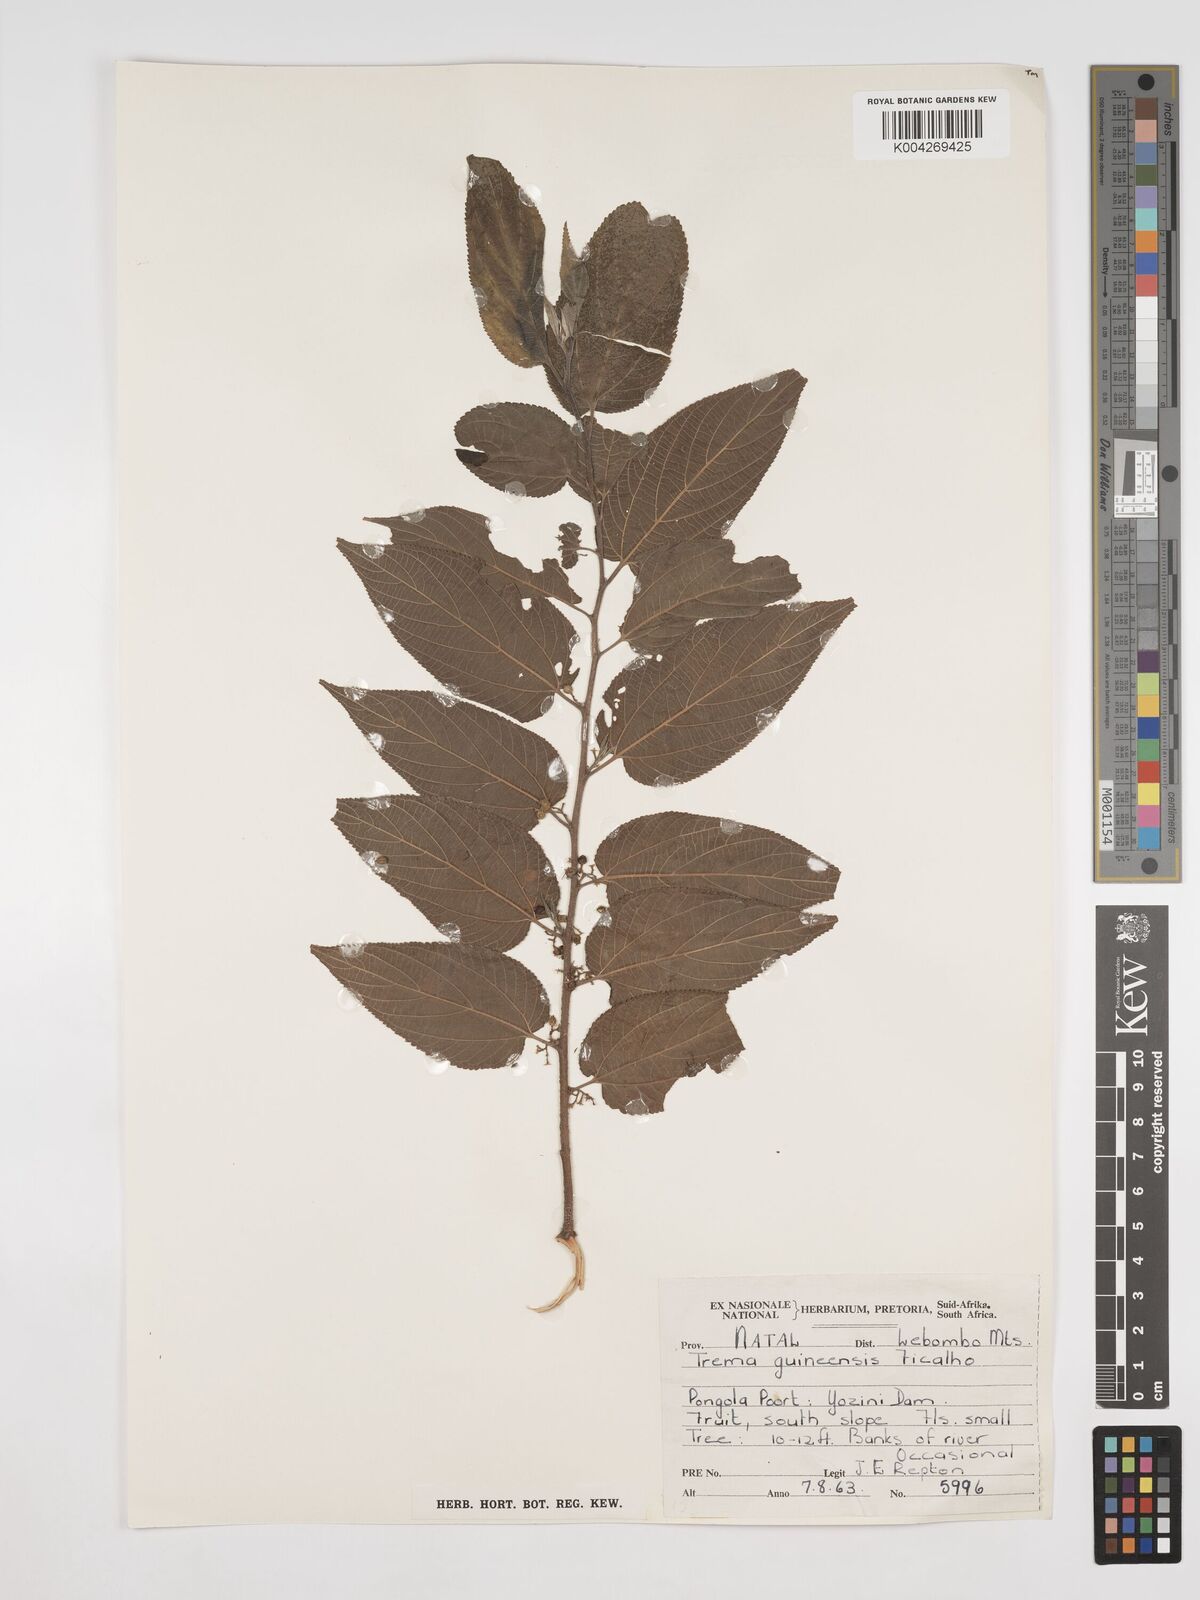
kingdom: Plantae
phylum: Tracheophyta
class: Magnoliopsida
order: Rosales
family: Cannabaceae
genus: Trema
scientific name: Trema orientale
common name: Indian charcoal tree
